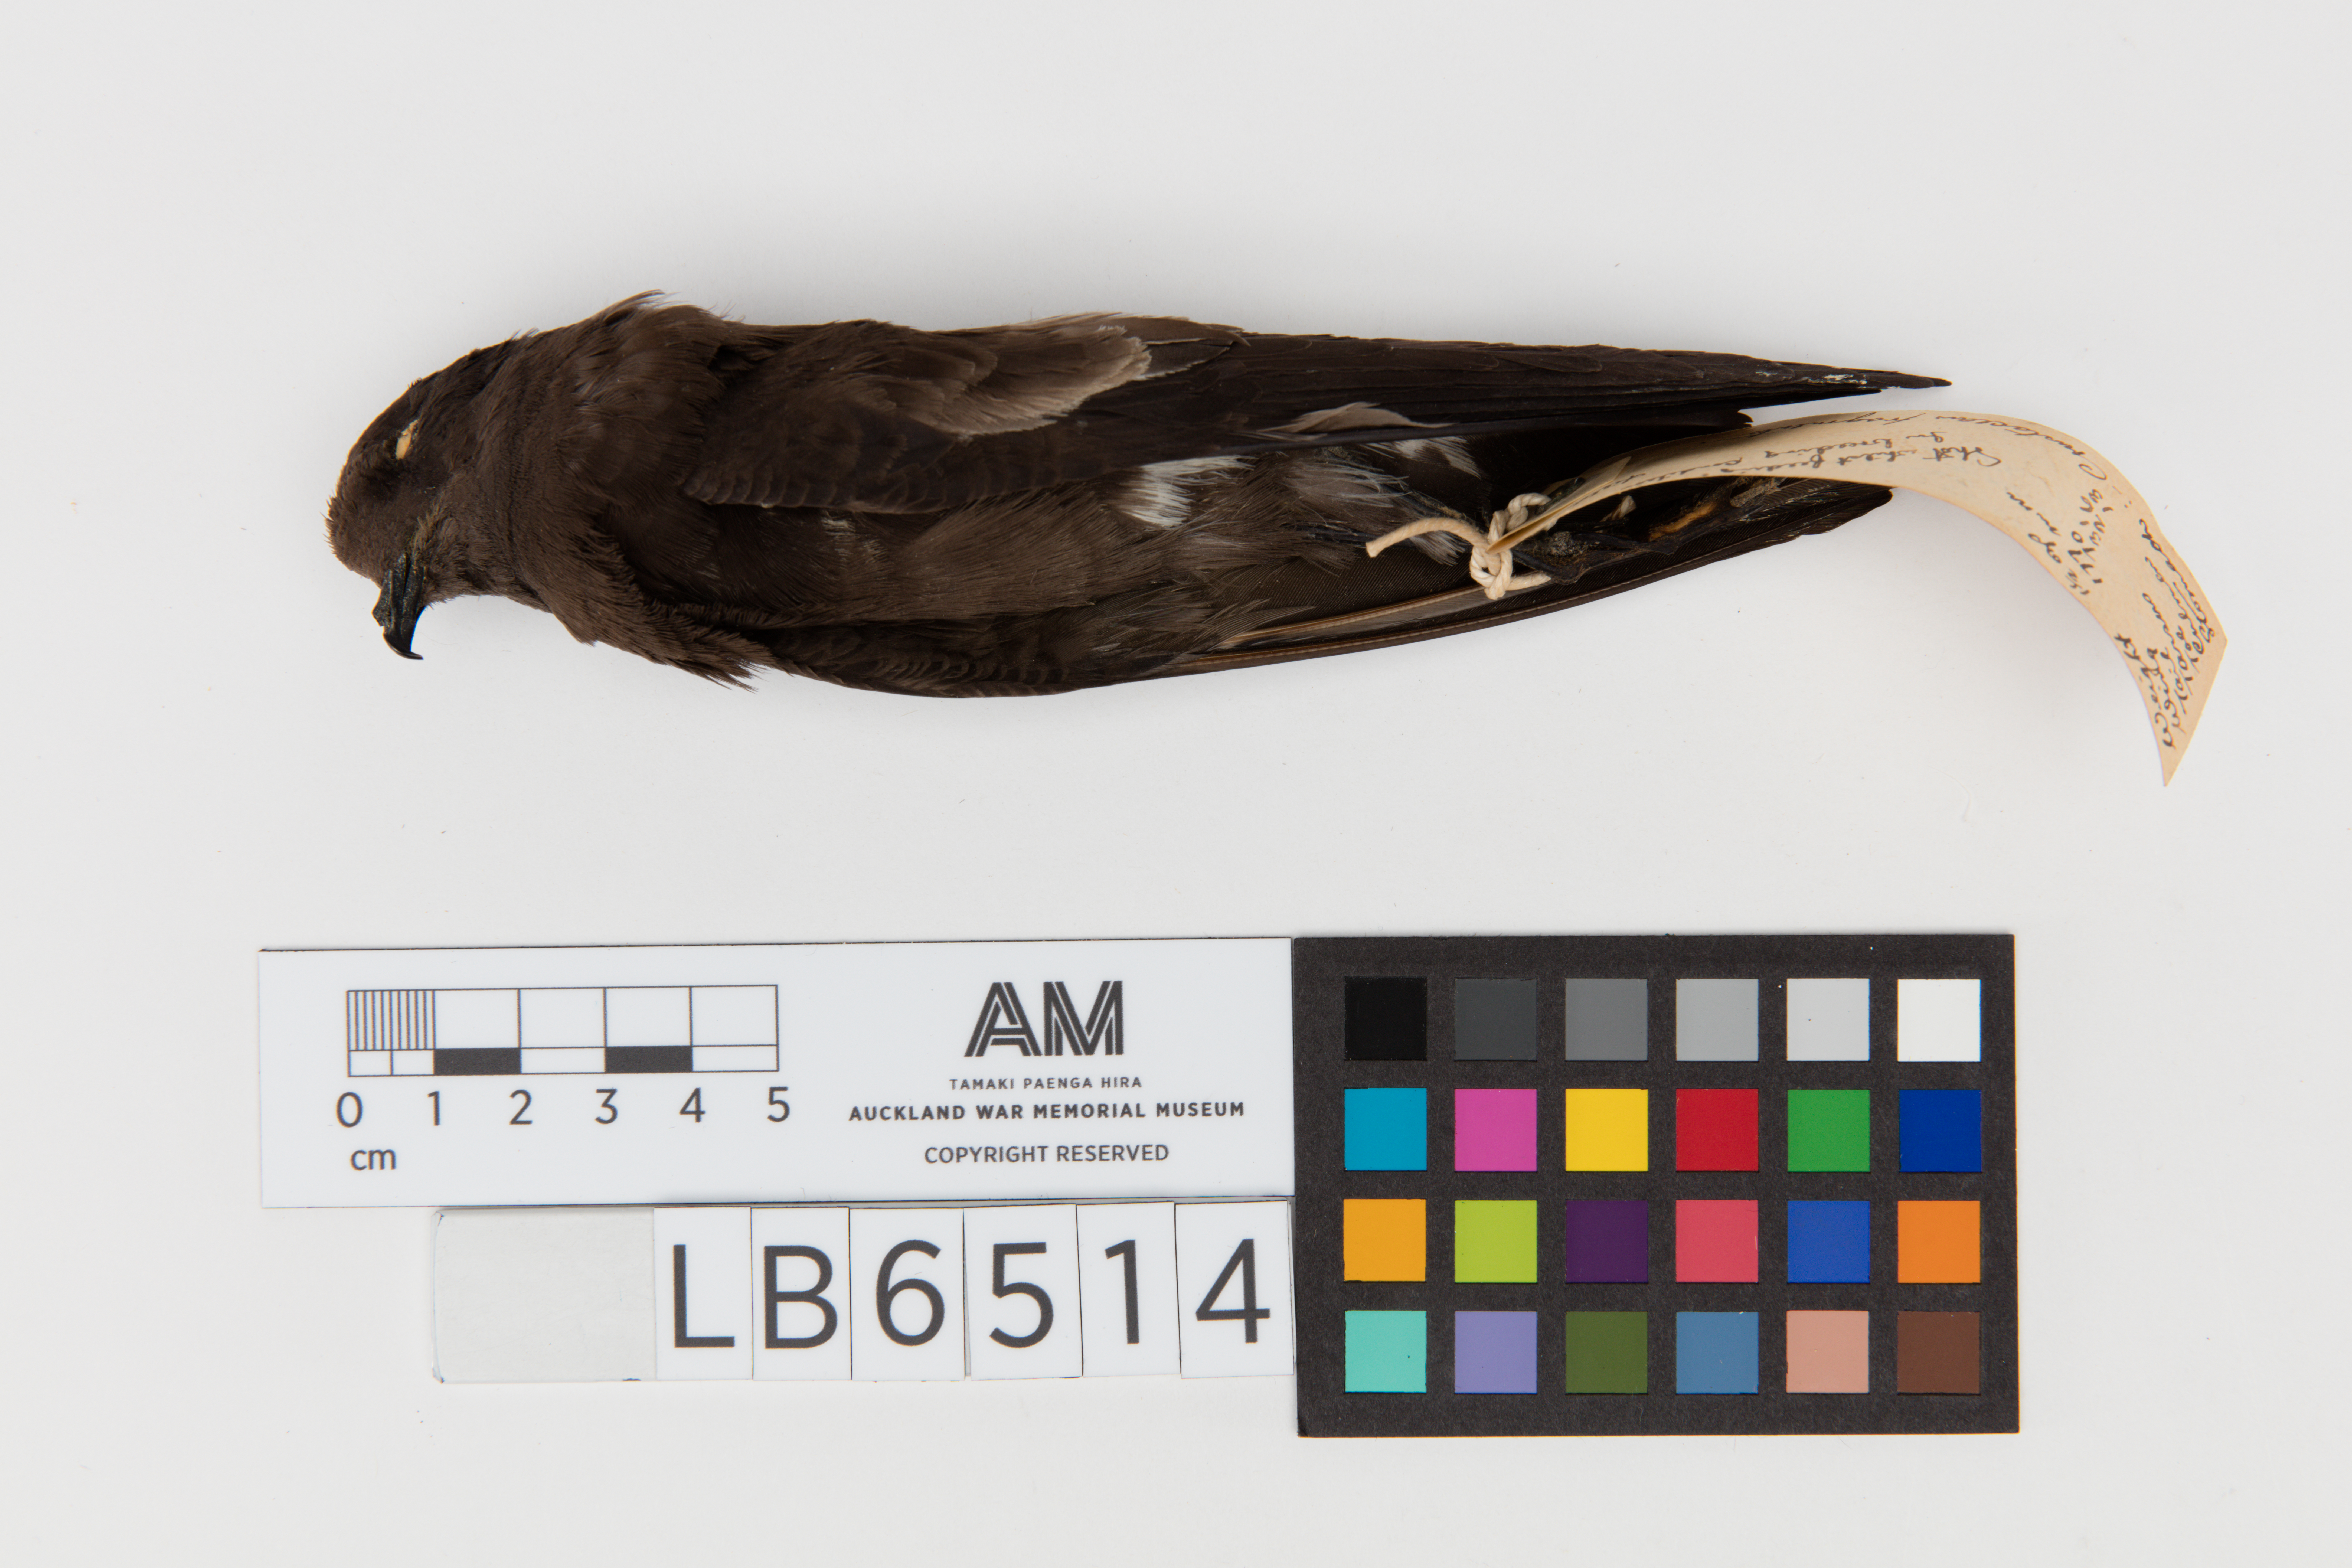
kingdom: Animalia
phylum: Chordata
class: Aves
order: Procellariiformes
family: Hydrobatidae
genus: Oceanites
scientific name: Oceanites oceanicus
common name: Wilson's storm petrel
